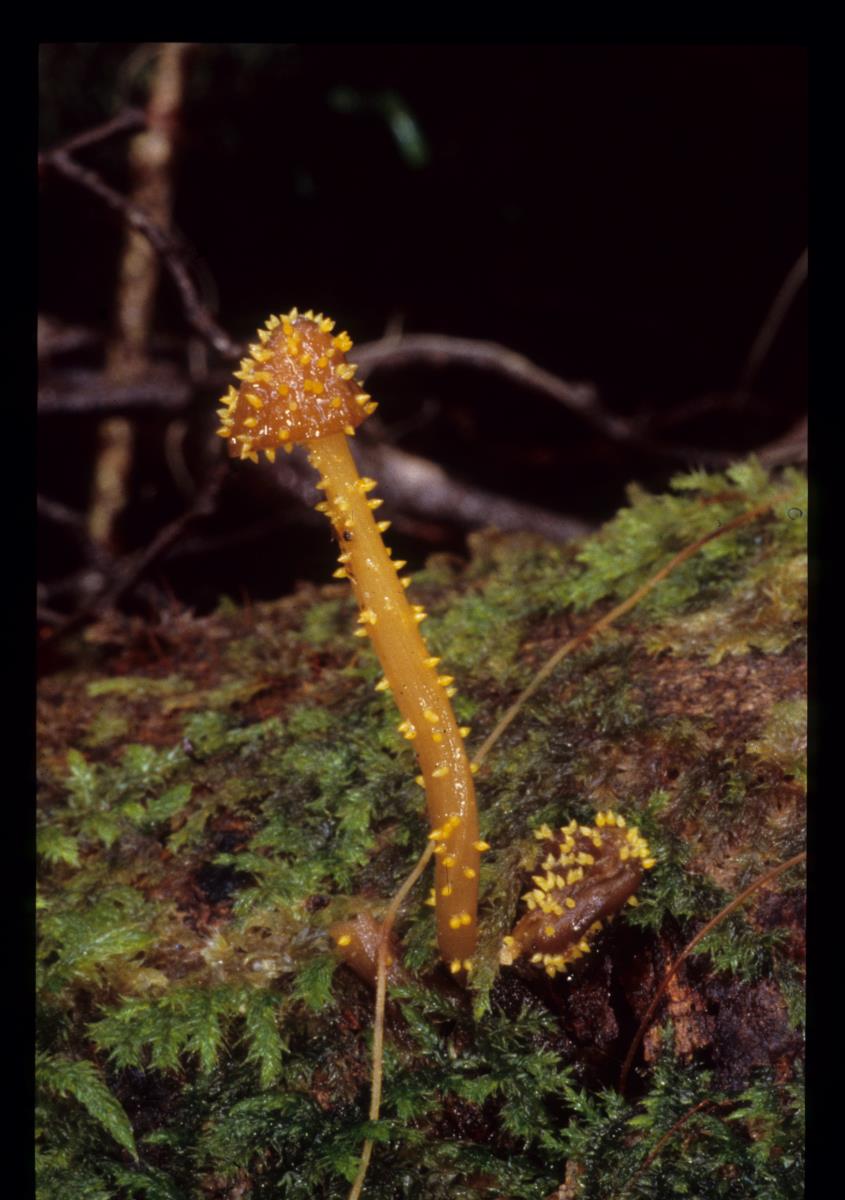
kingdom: Fungi
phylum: Ascomycota
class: Sordariomycetes
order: Hypocreales
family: Clavicipitaceae
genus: Neobarya
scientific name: Neobarya agaricicola
